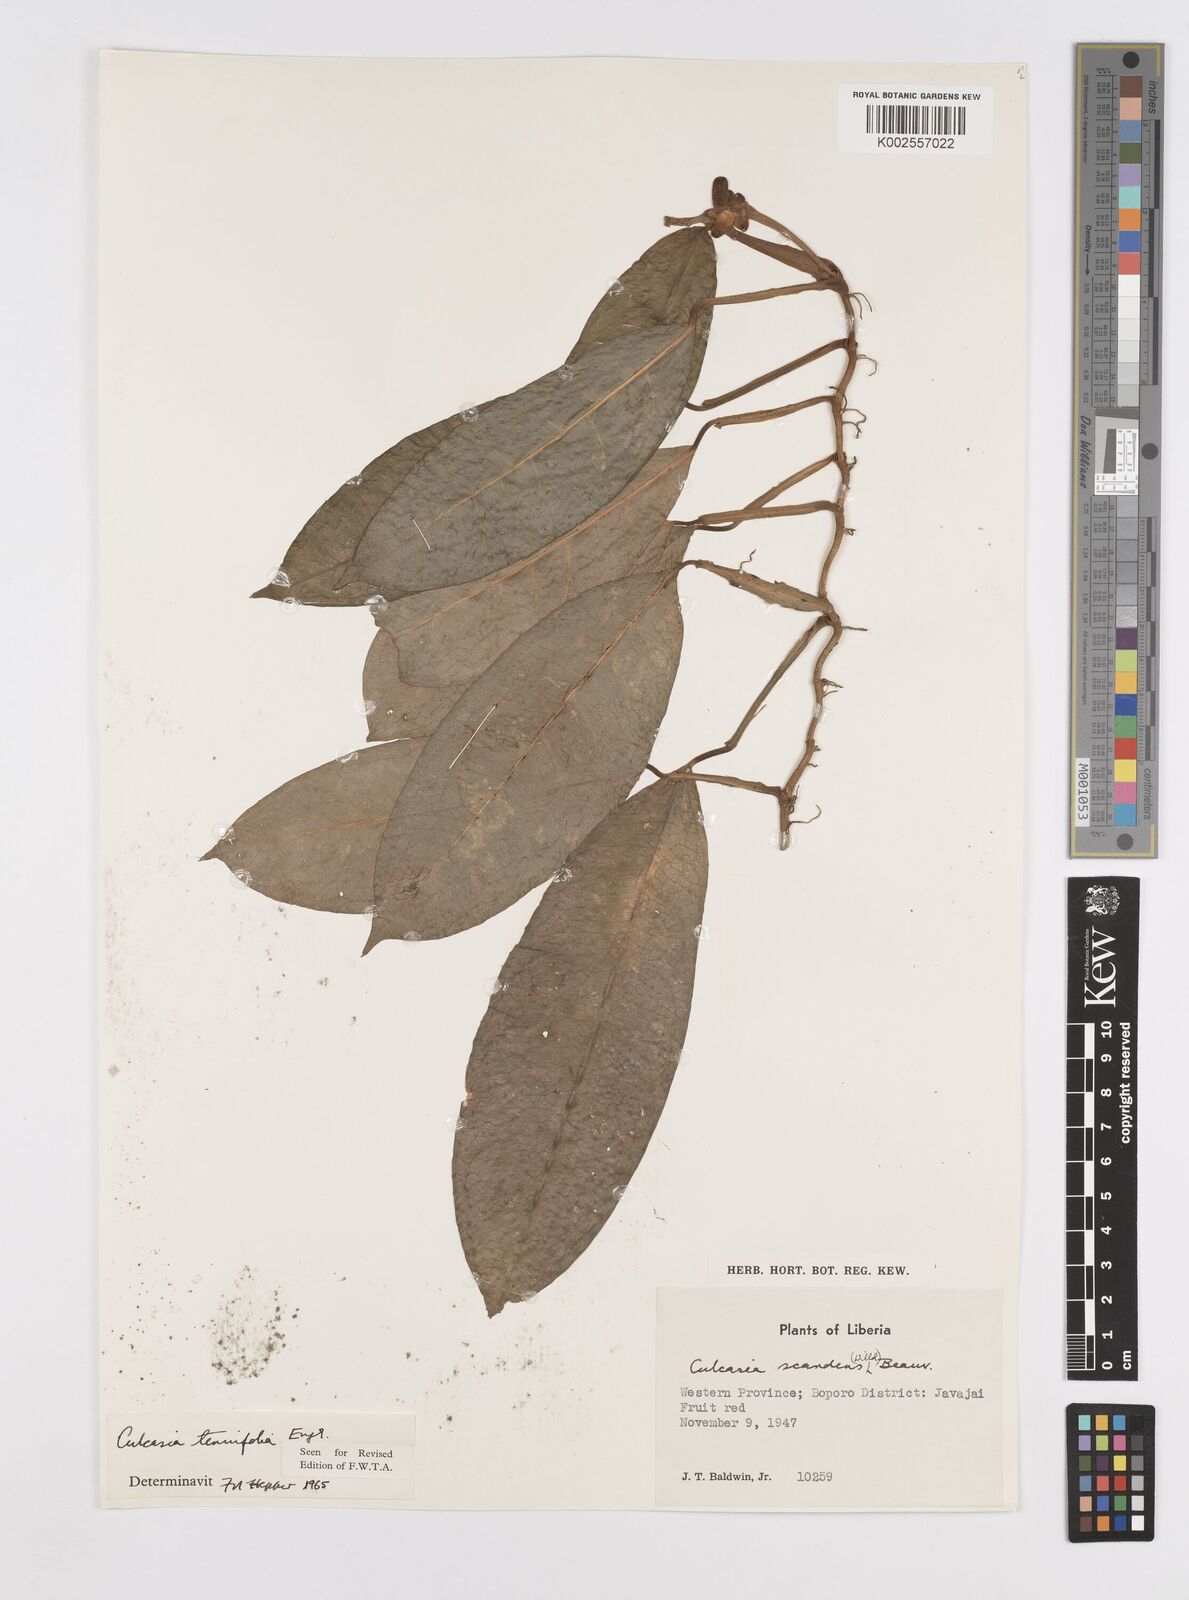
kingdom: Plantae
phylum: Tracheophyta
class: Liliopsida
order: Alismatales
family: Araceae
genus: Culcasia
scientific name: Culcasia tenuifolia
